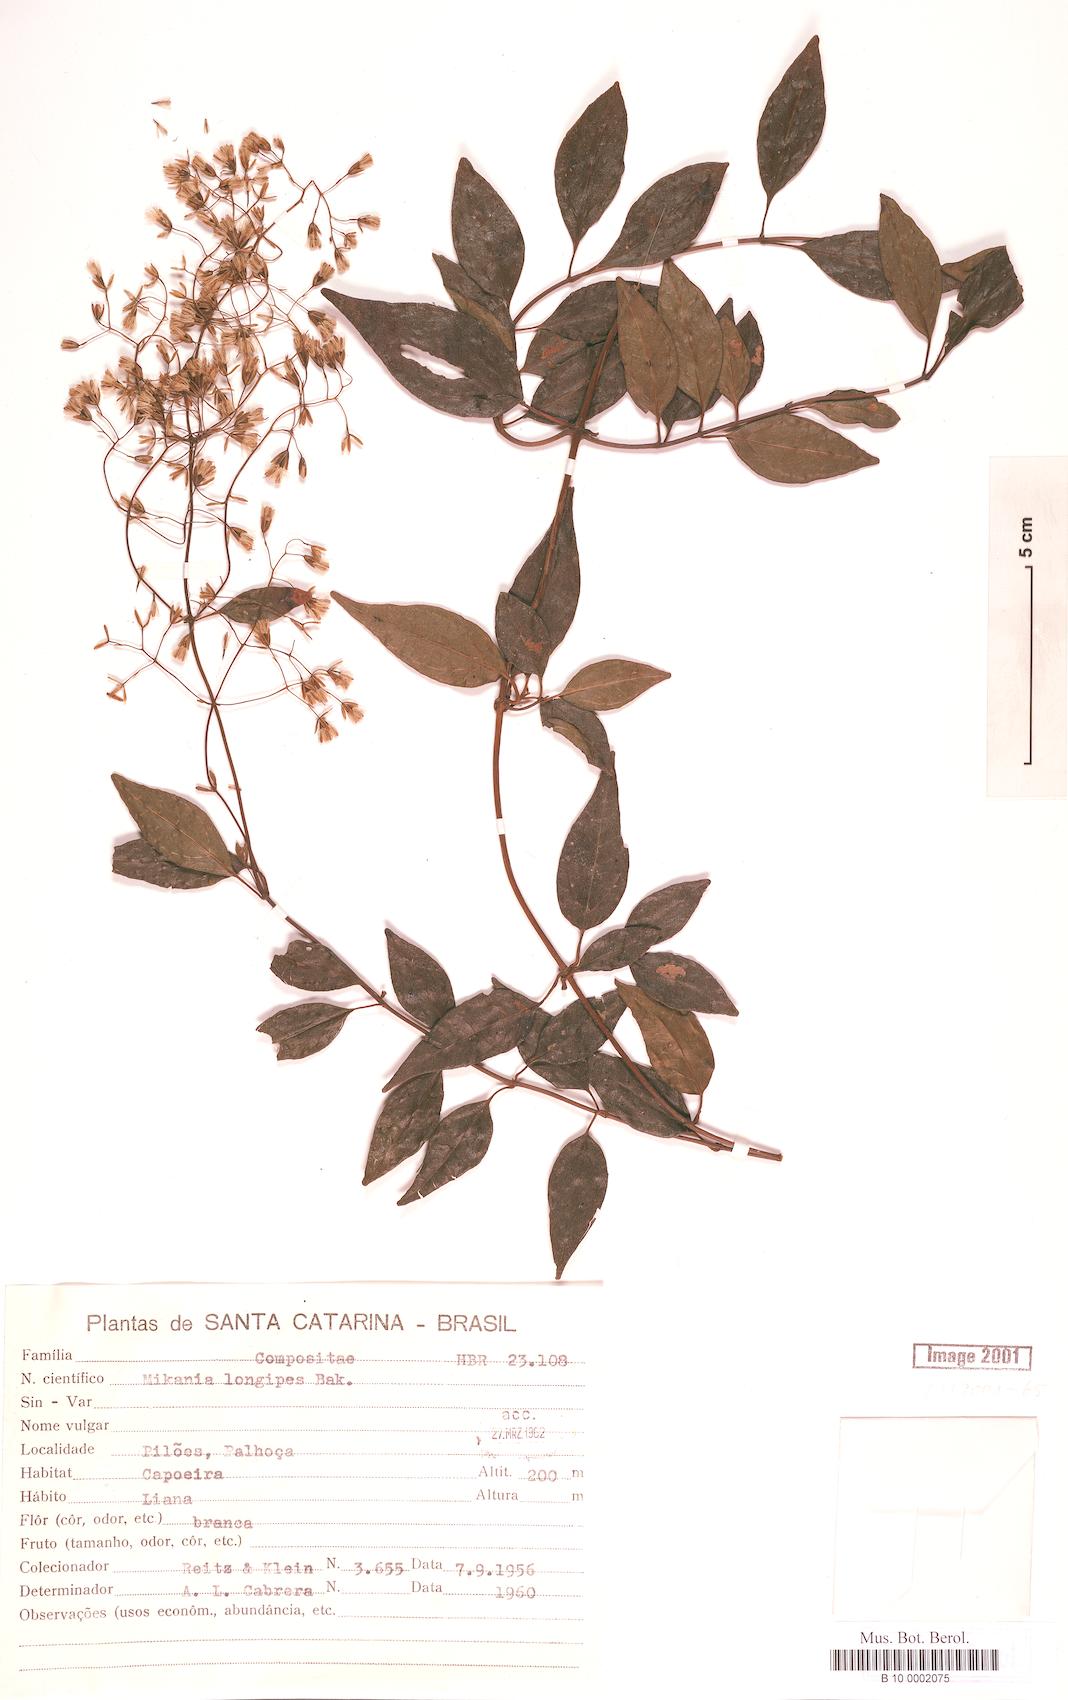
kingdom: Plantae
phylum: Tracheophyta
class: Magnoliopsida
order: Asterales
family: Asteraceae
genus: Mikania
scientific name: Mikania longipes
